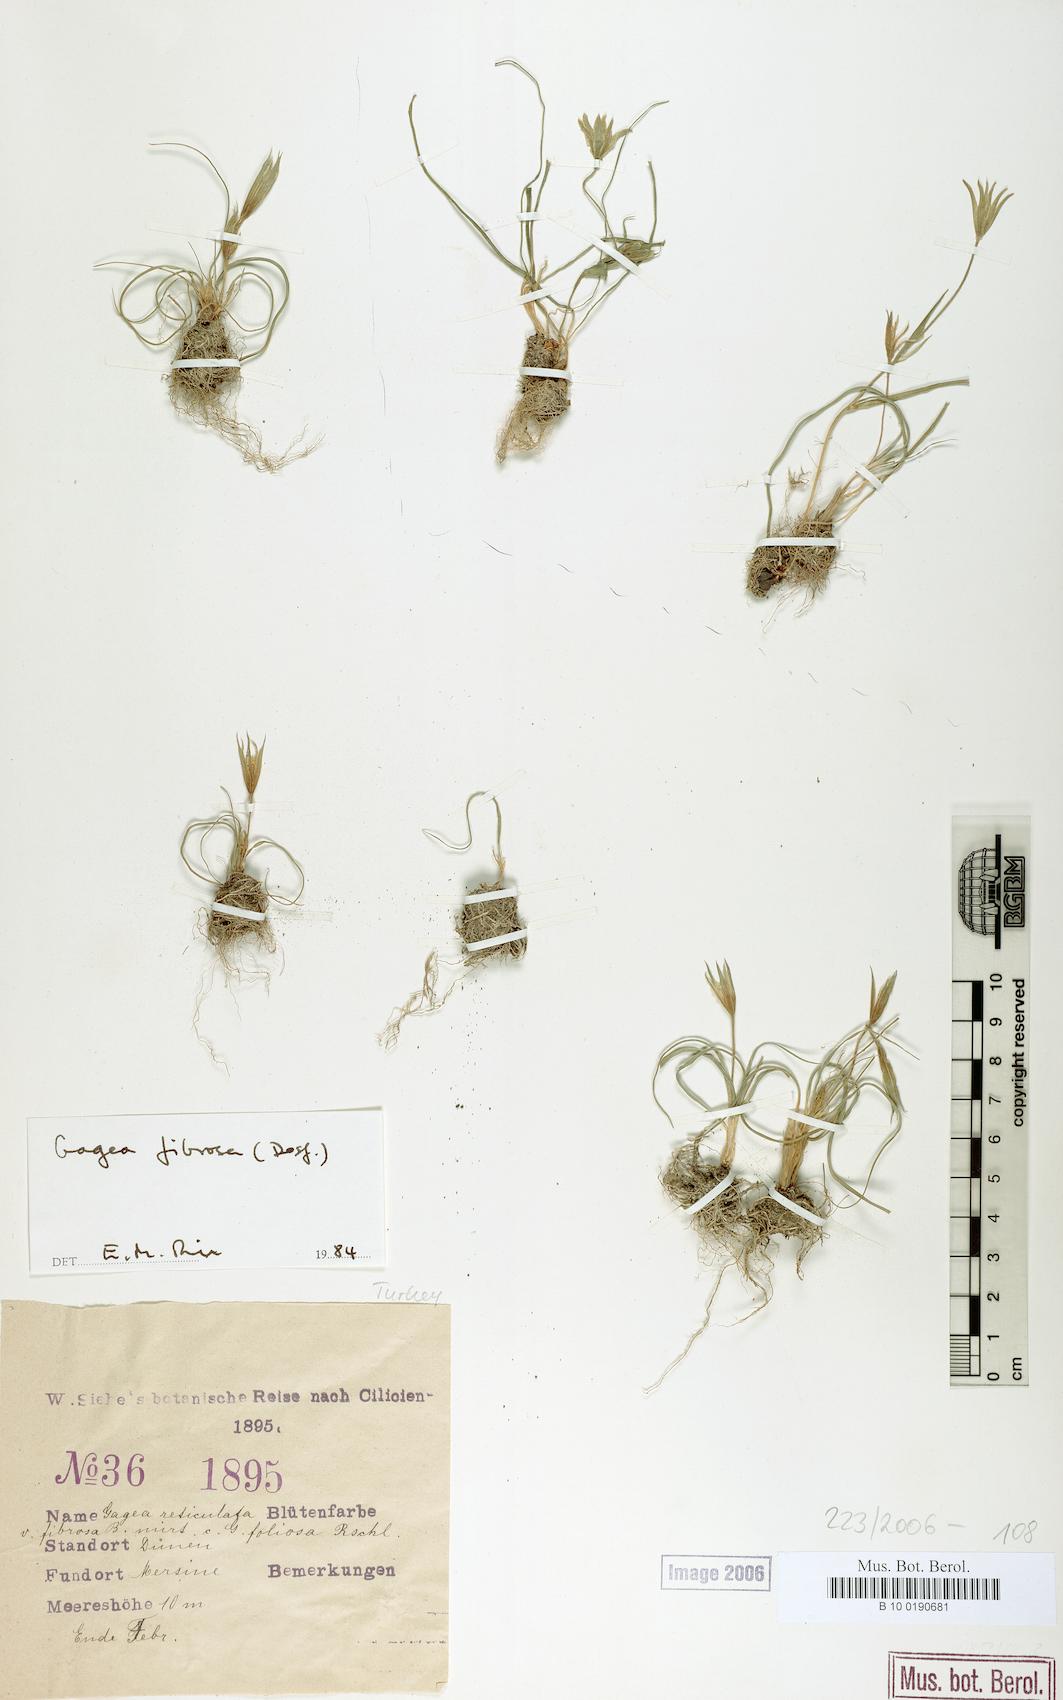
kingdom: Plantae
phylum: Tracheophyta
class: Liliopsida
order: Liliales
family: Liliaceae
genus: Gagea
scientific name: Gagea fibrosa
